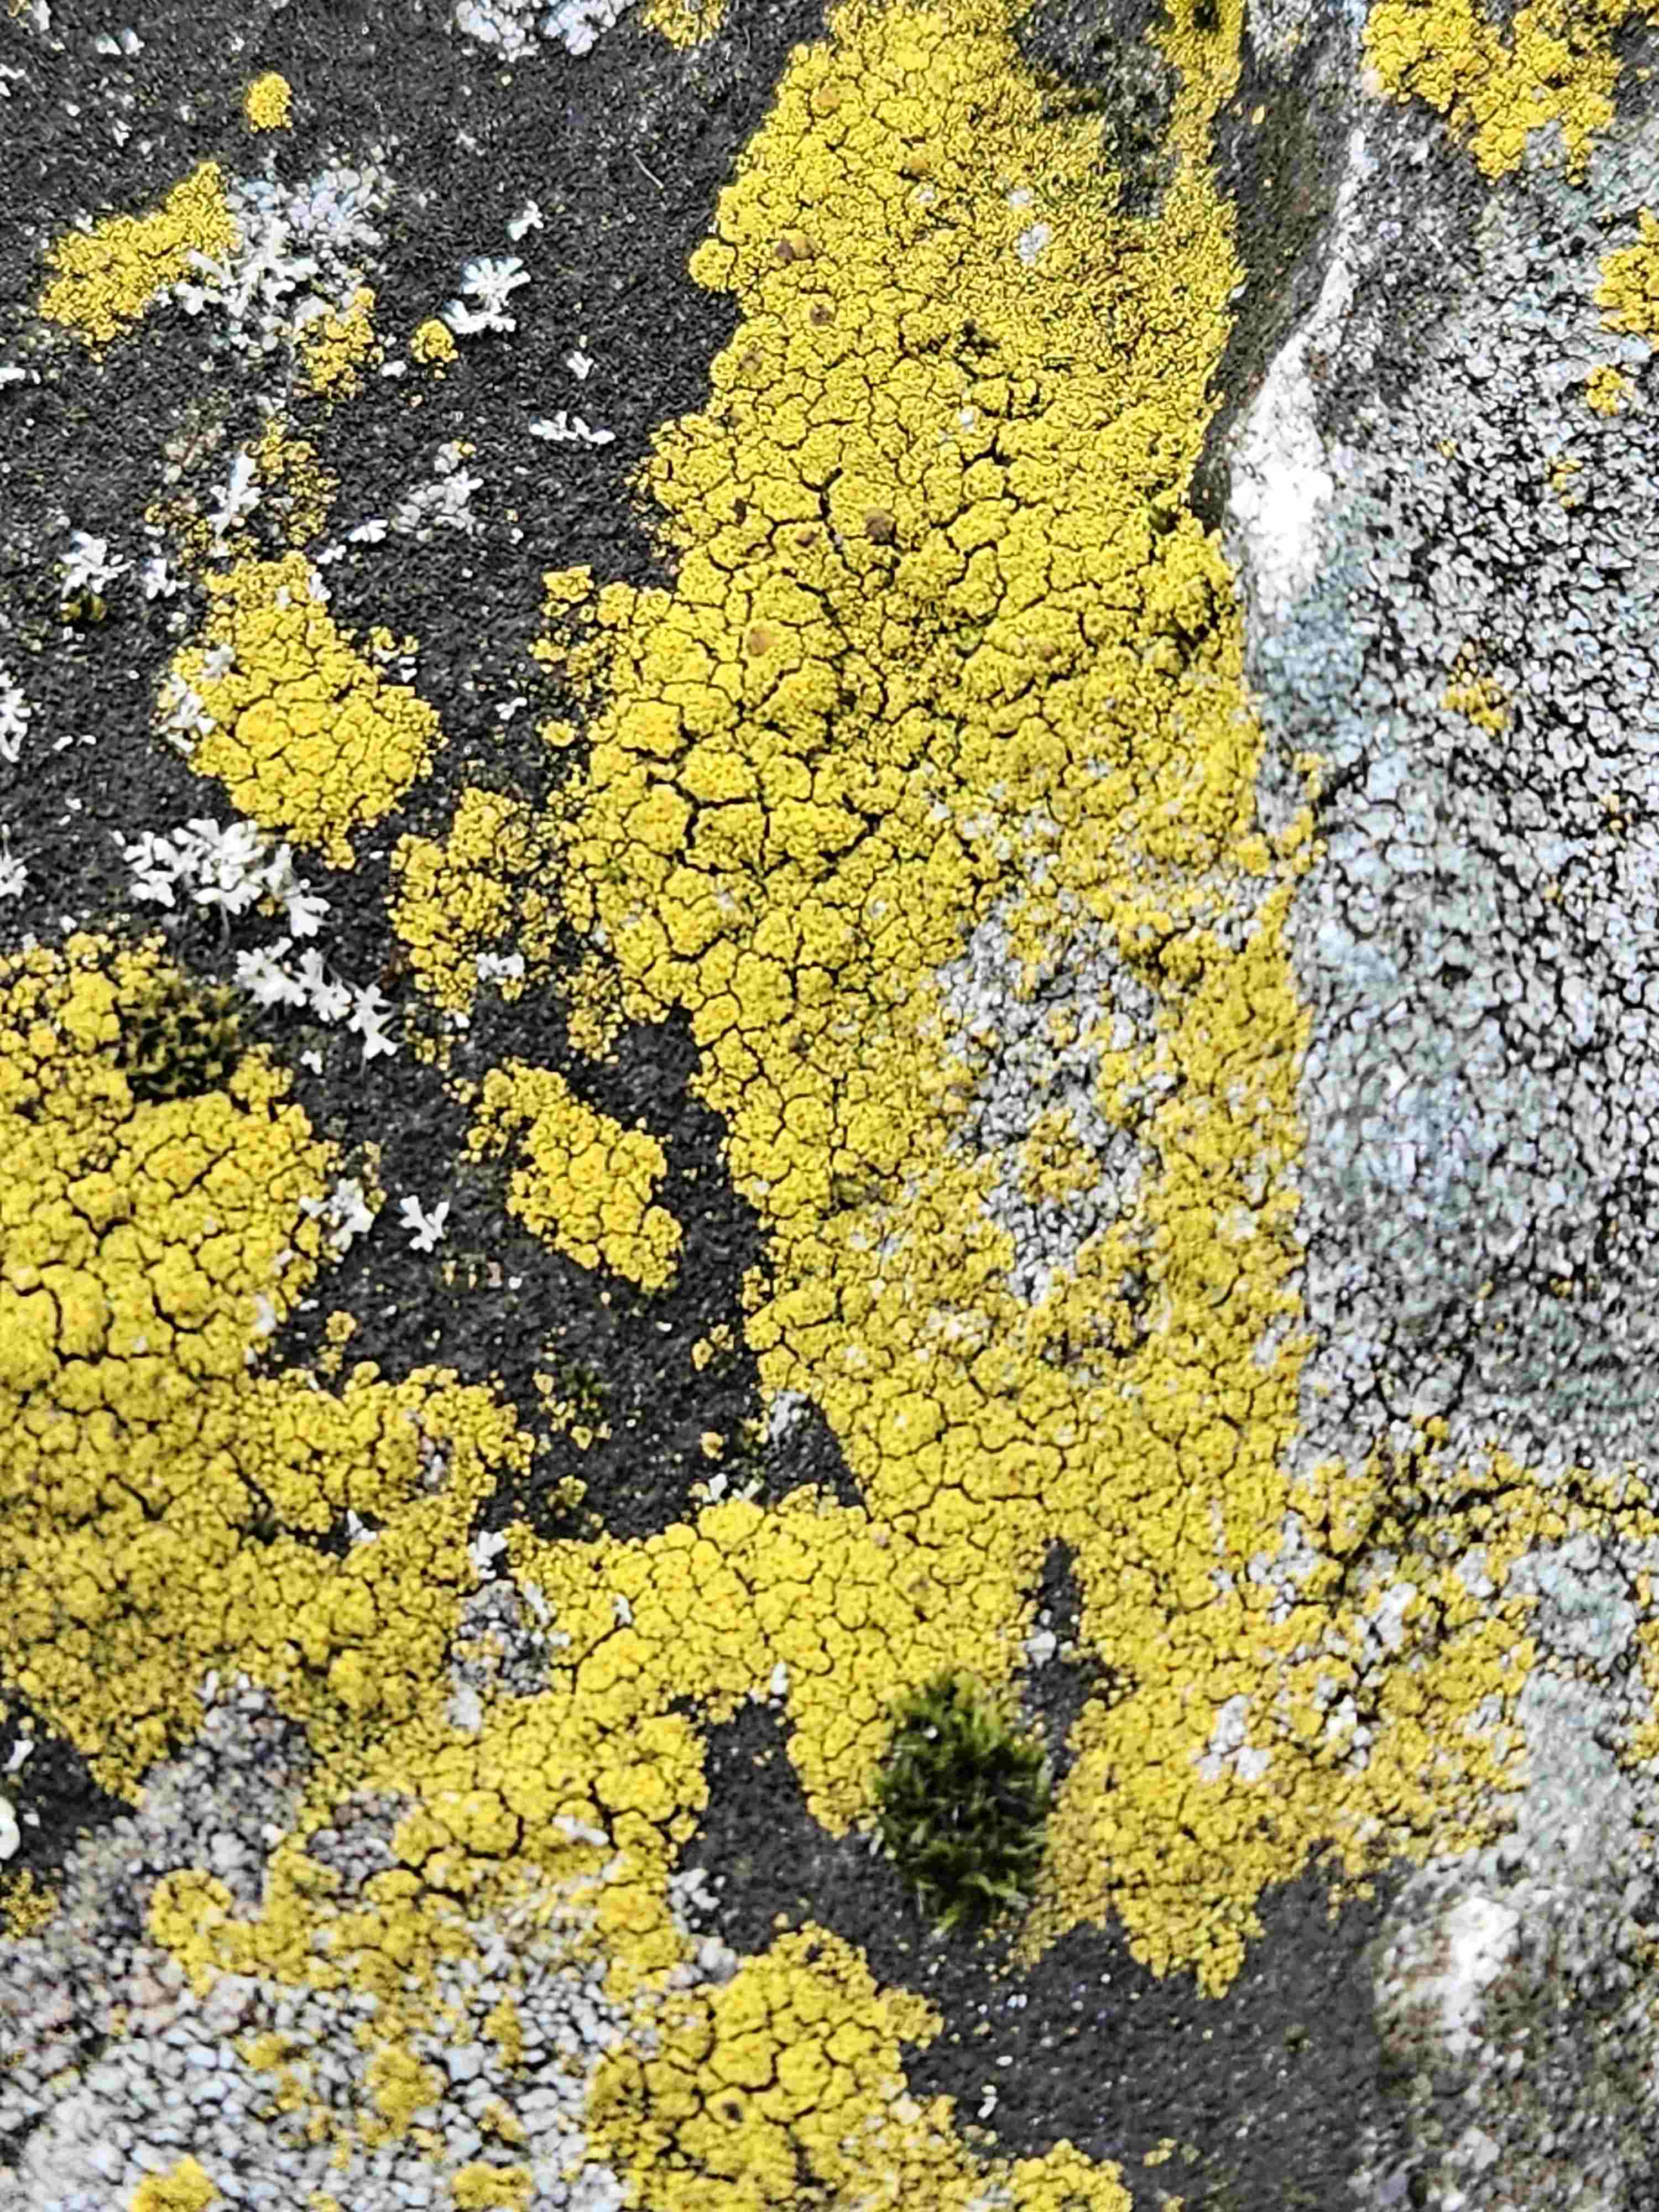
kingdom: Fungi
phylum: Ascomycota
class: Candelariomycetes
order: Candelariales
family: Candelariaceae
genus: Candelariella
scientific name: Candelariella vitellina
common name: almindelig æggeblommelav
